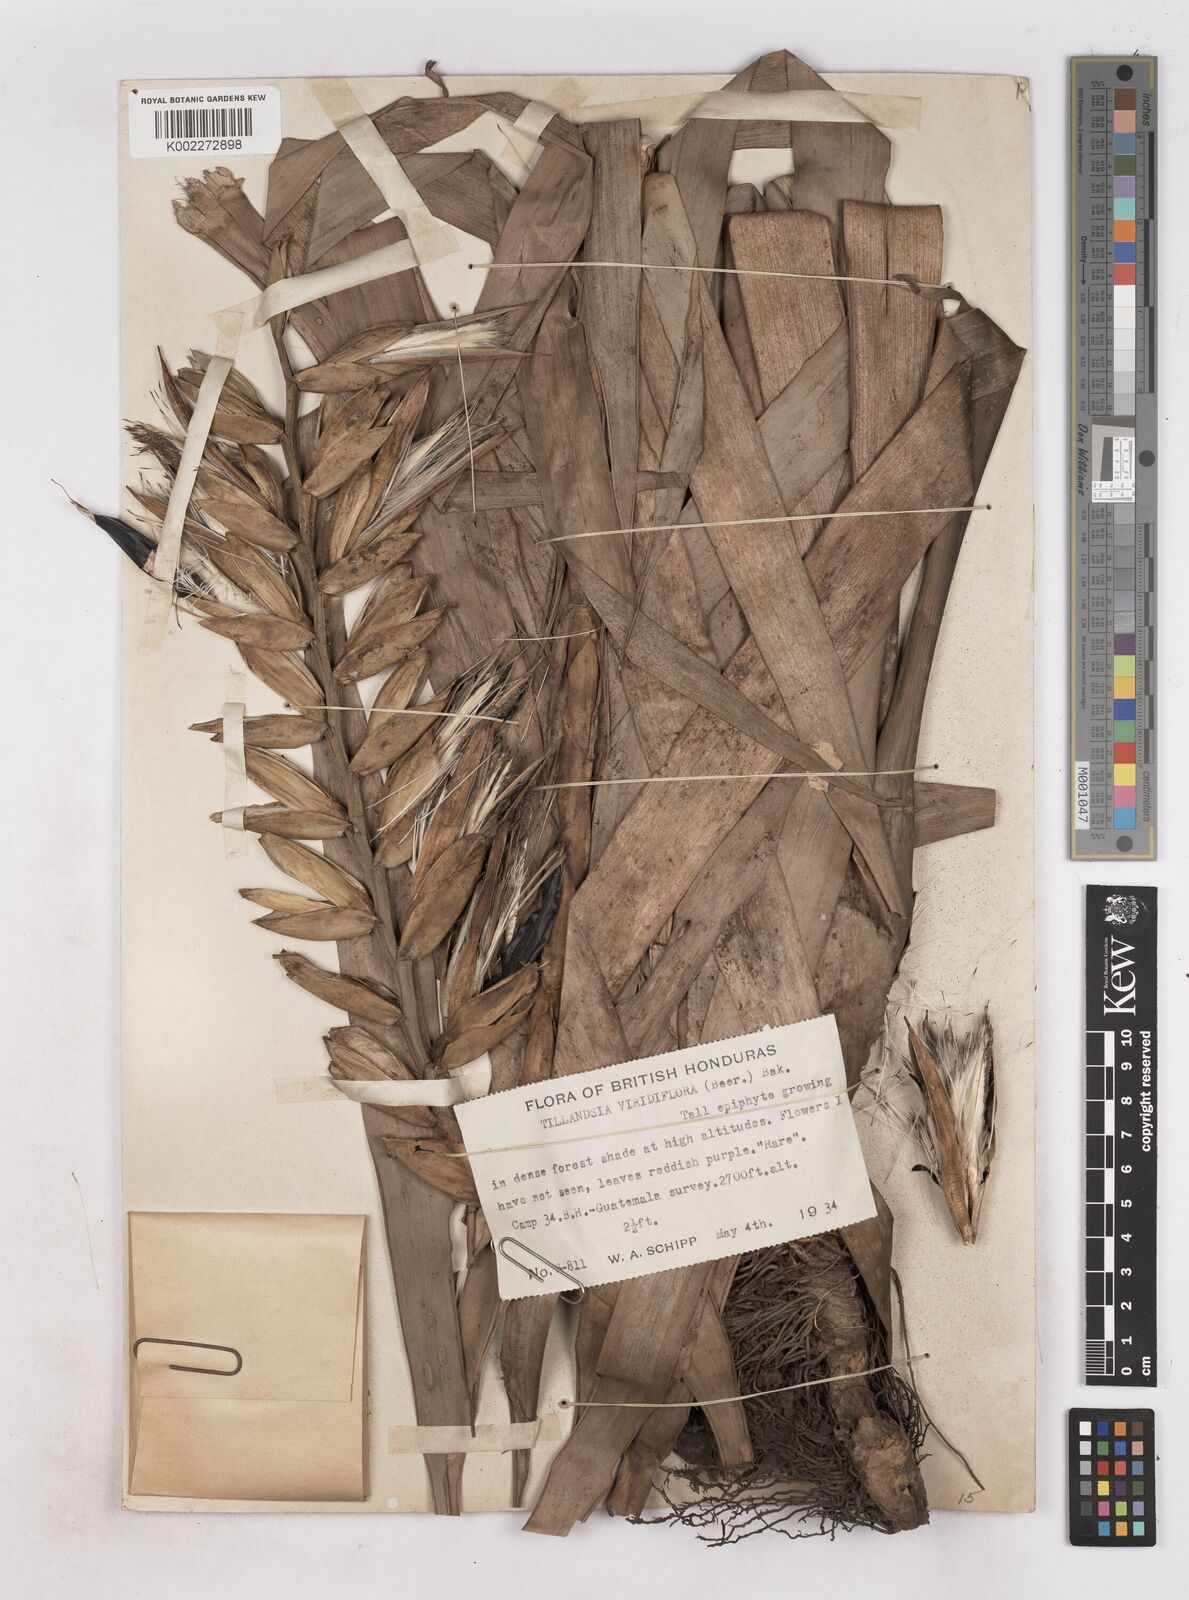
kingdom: Plantae
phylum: Tracheophyta
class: Liliopsida
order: Poales
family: Bromeliaceae
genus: Pseudalcantarea
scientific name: Pseudalcantarea viridiflora
